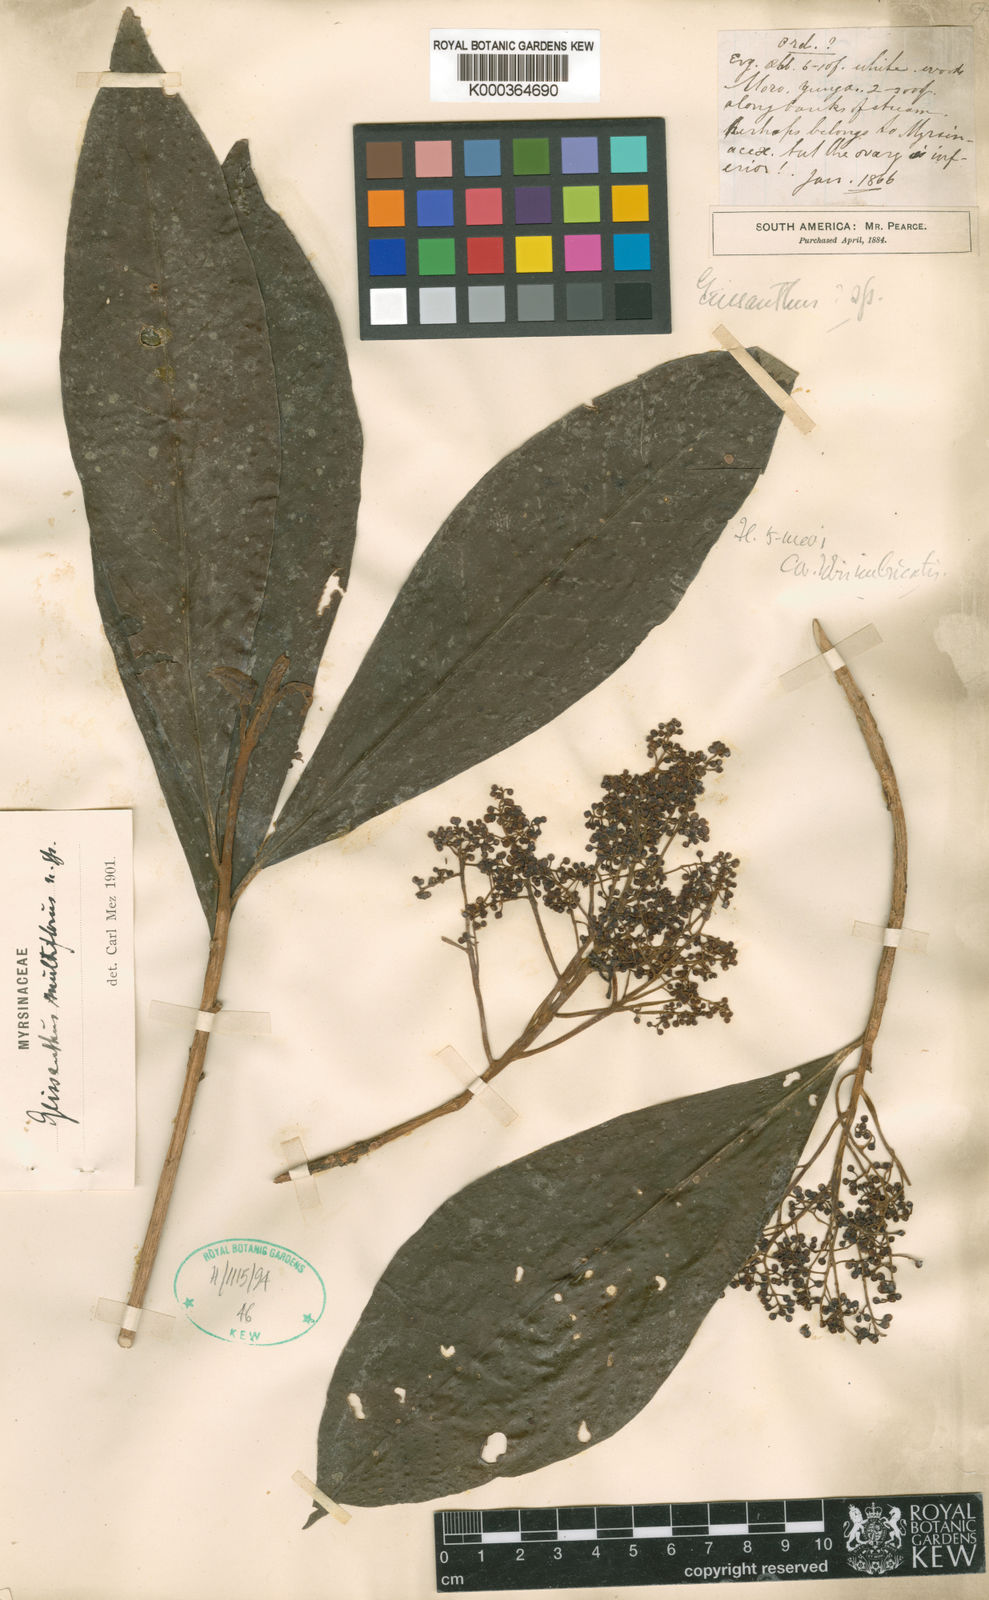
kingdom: Plantae
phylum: Tracheophyta
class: Magnoliopsida
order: Ericales
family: Primulaceae
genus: Geissanthus
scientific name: Geissanthus multiflorus
